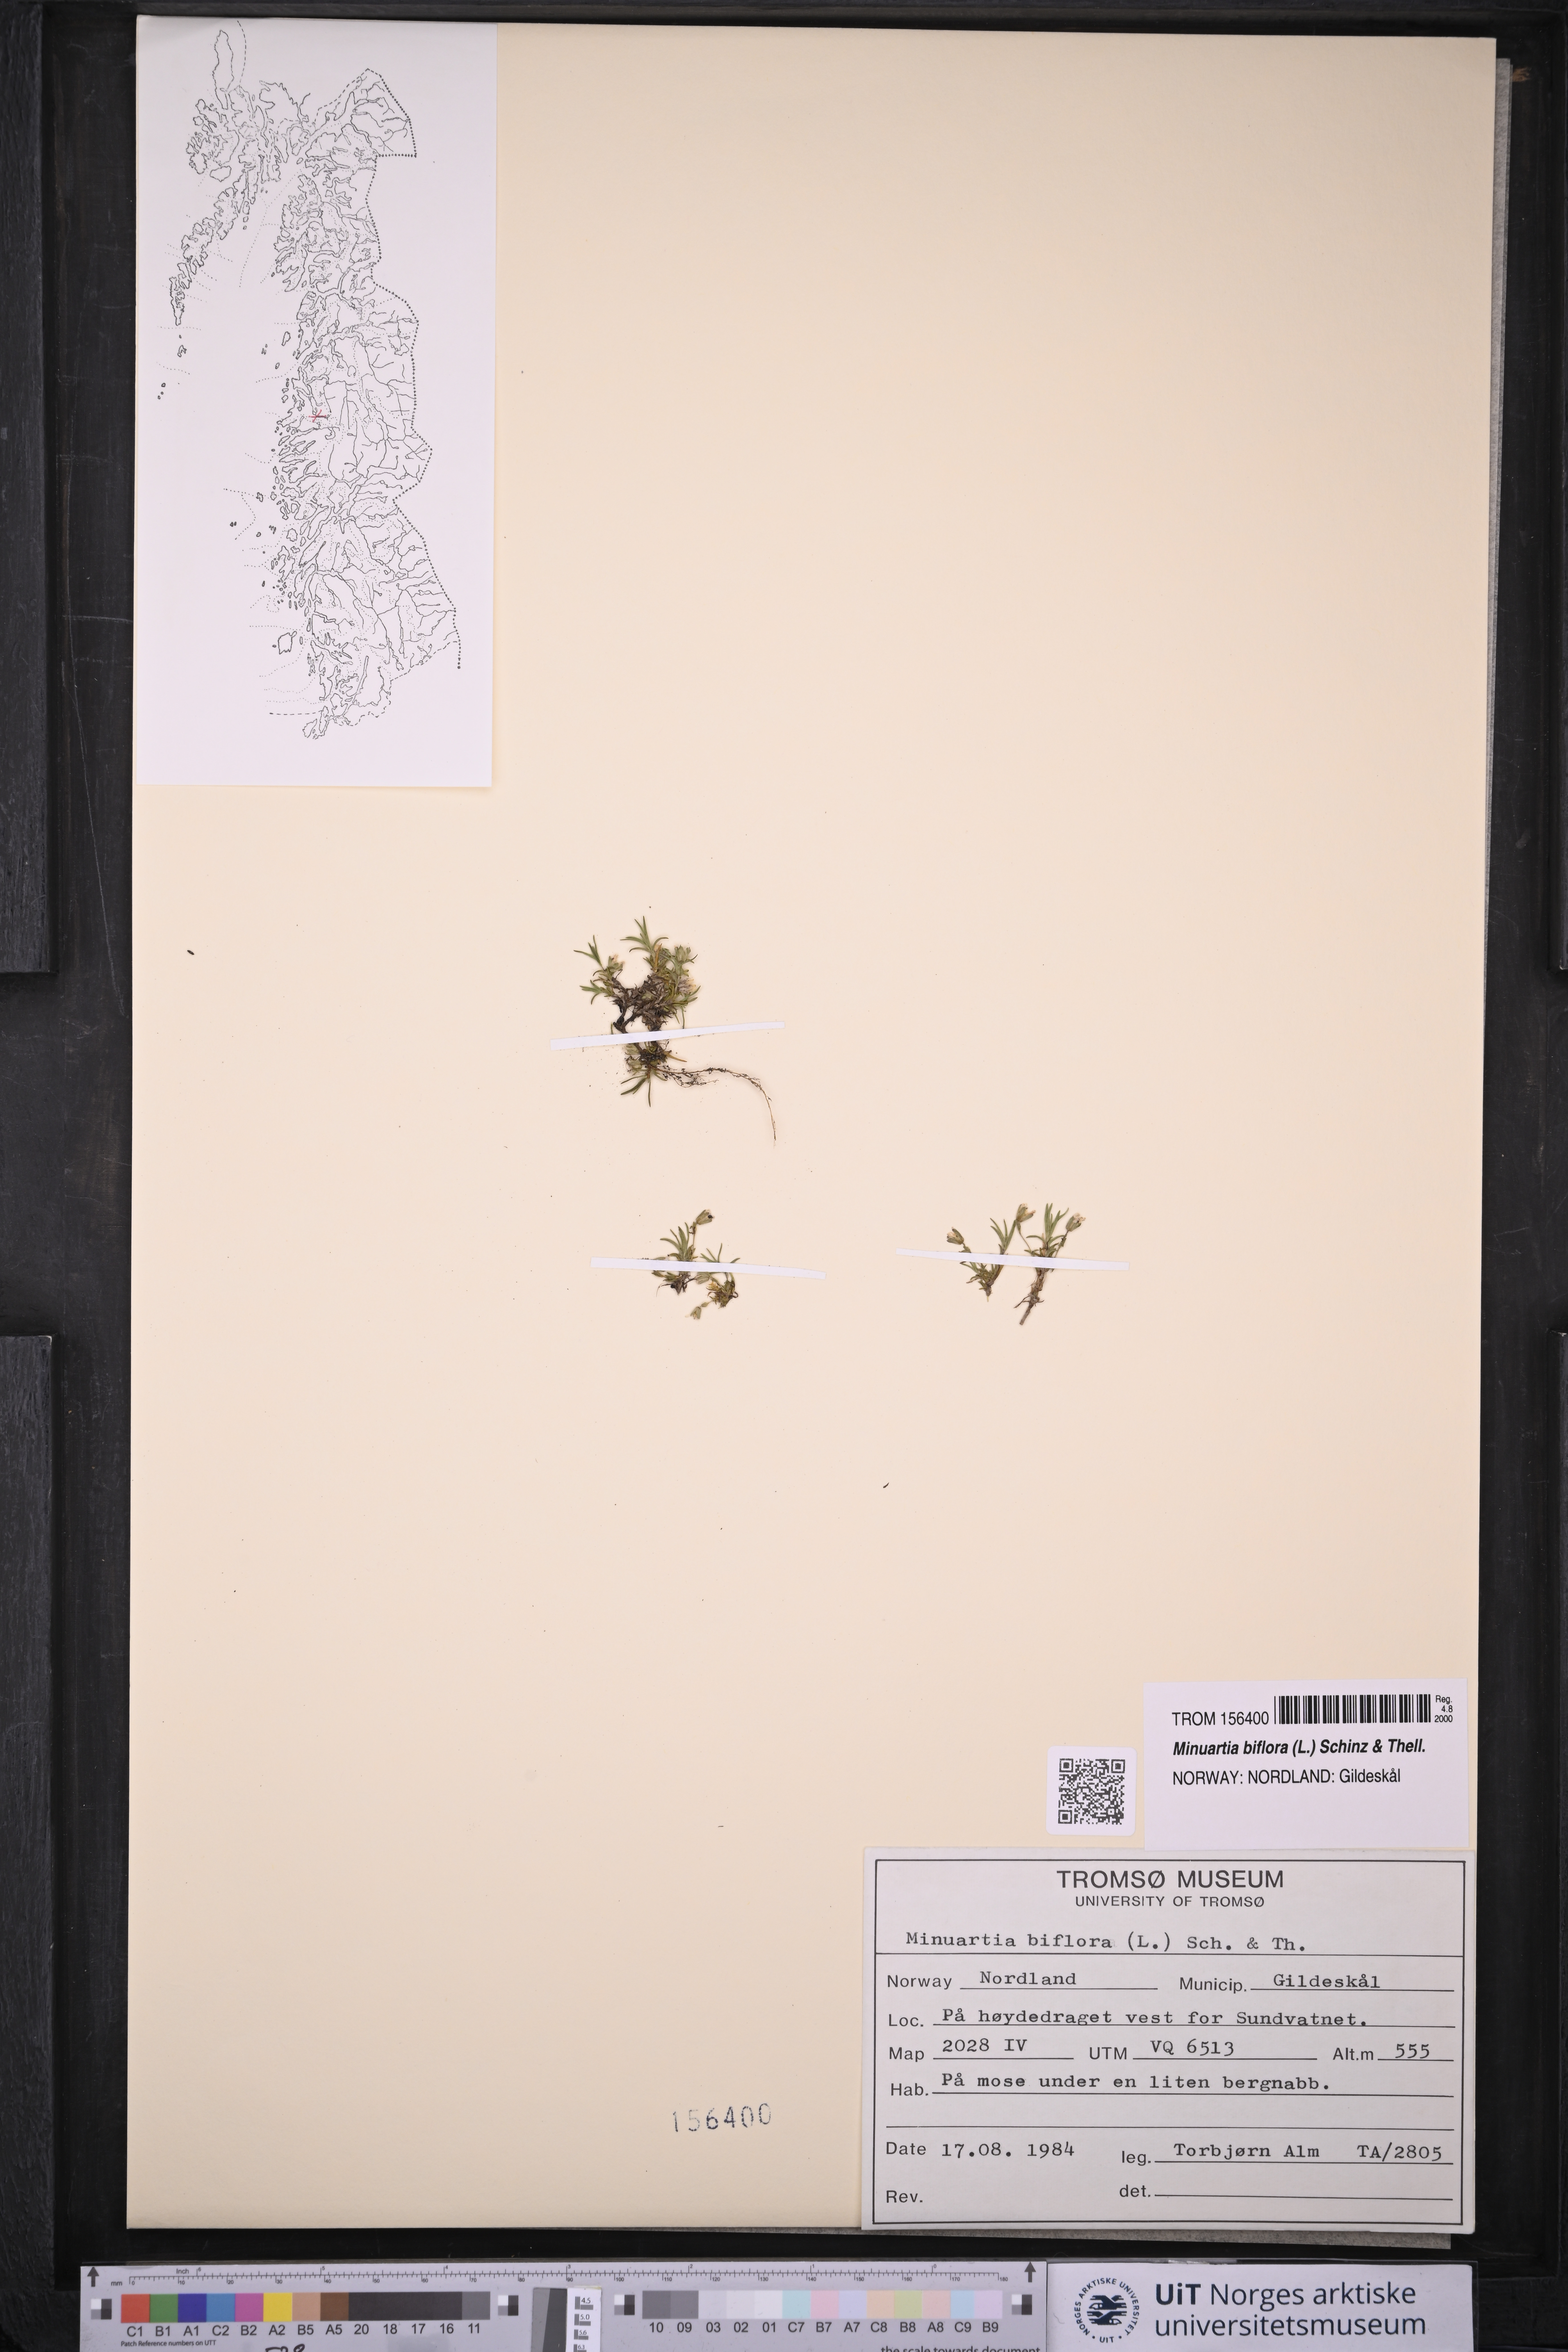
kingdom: Plantae
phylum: Tracheophyta
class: Magnoliopsida
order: Caryophyllales
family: Caryophyllaceae
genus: Cherleria
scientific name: Cherleria biflora
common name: Mountain sandwort
